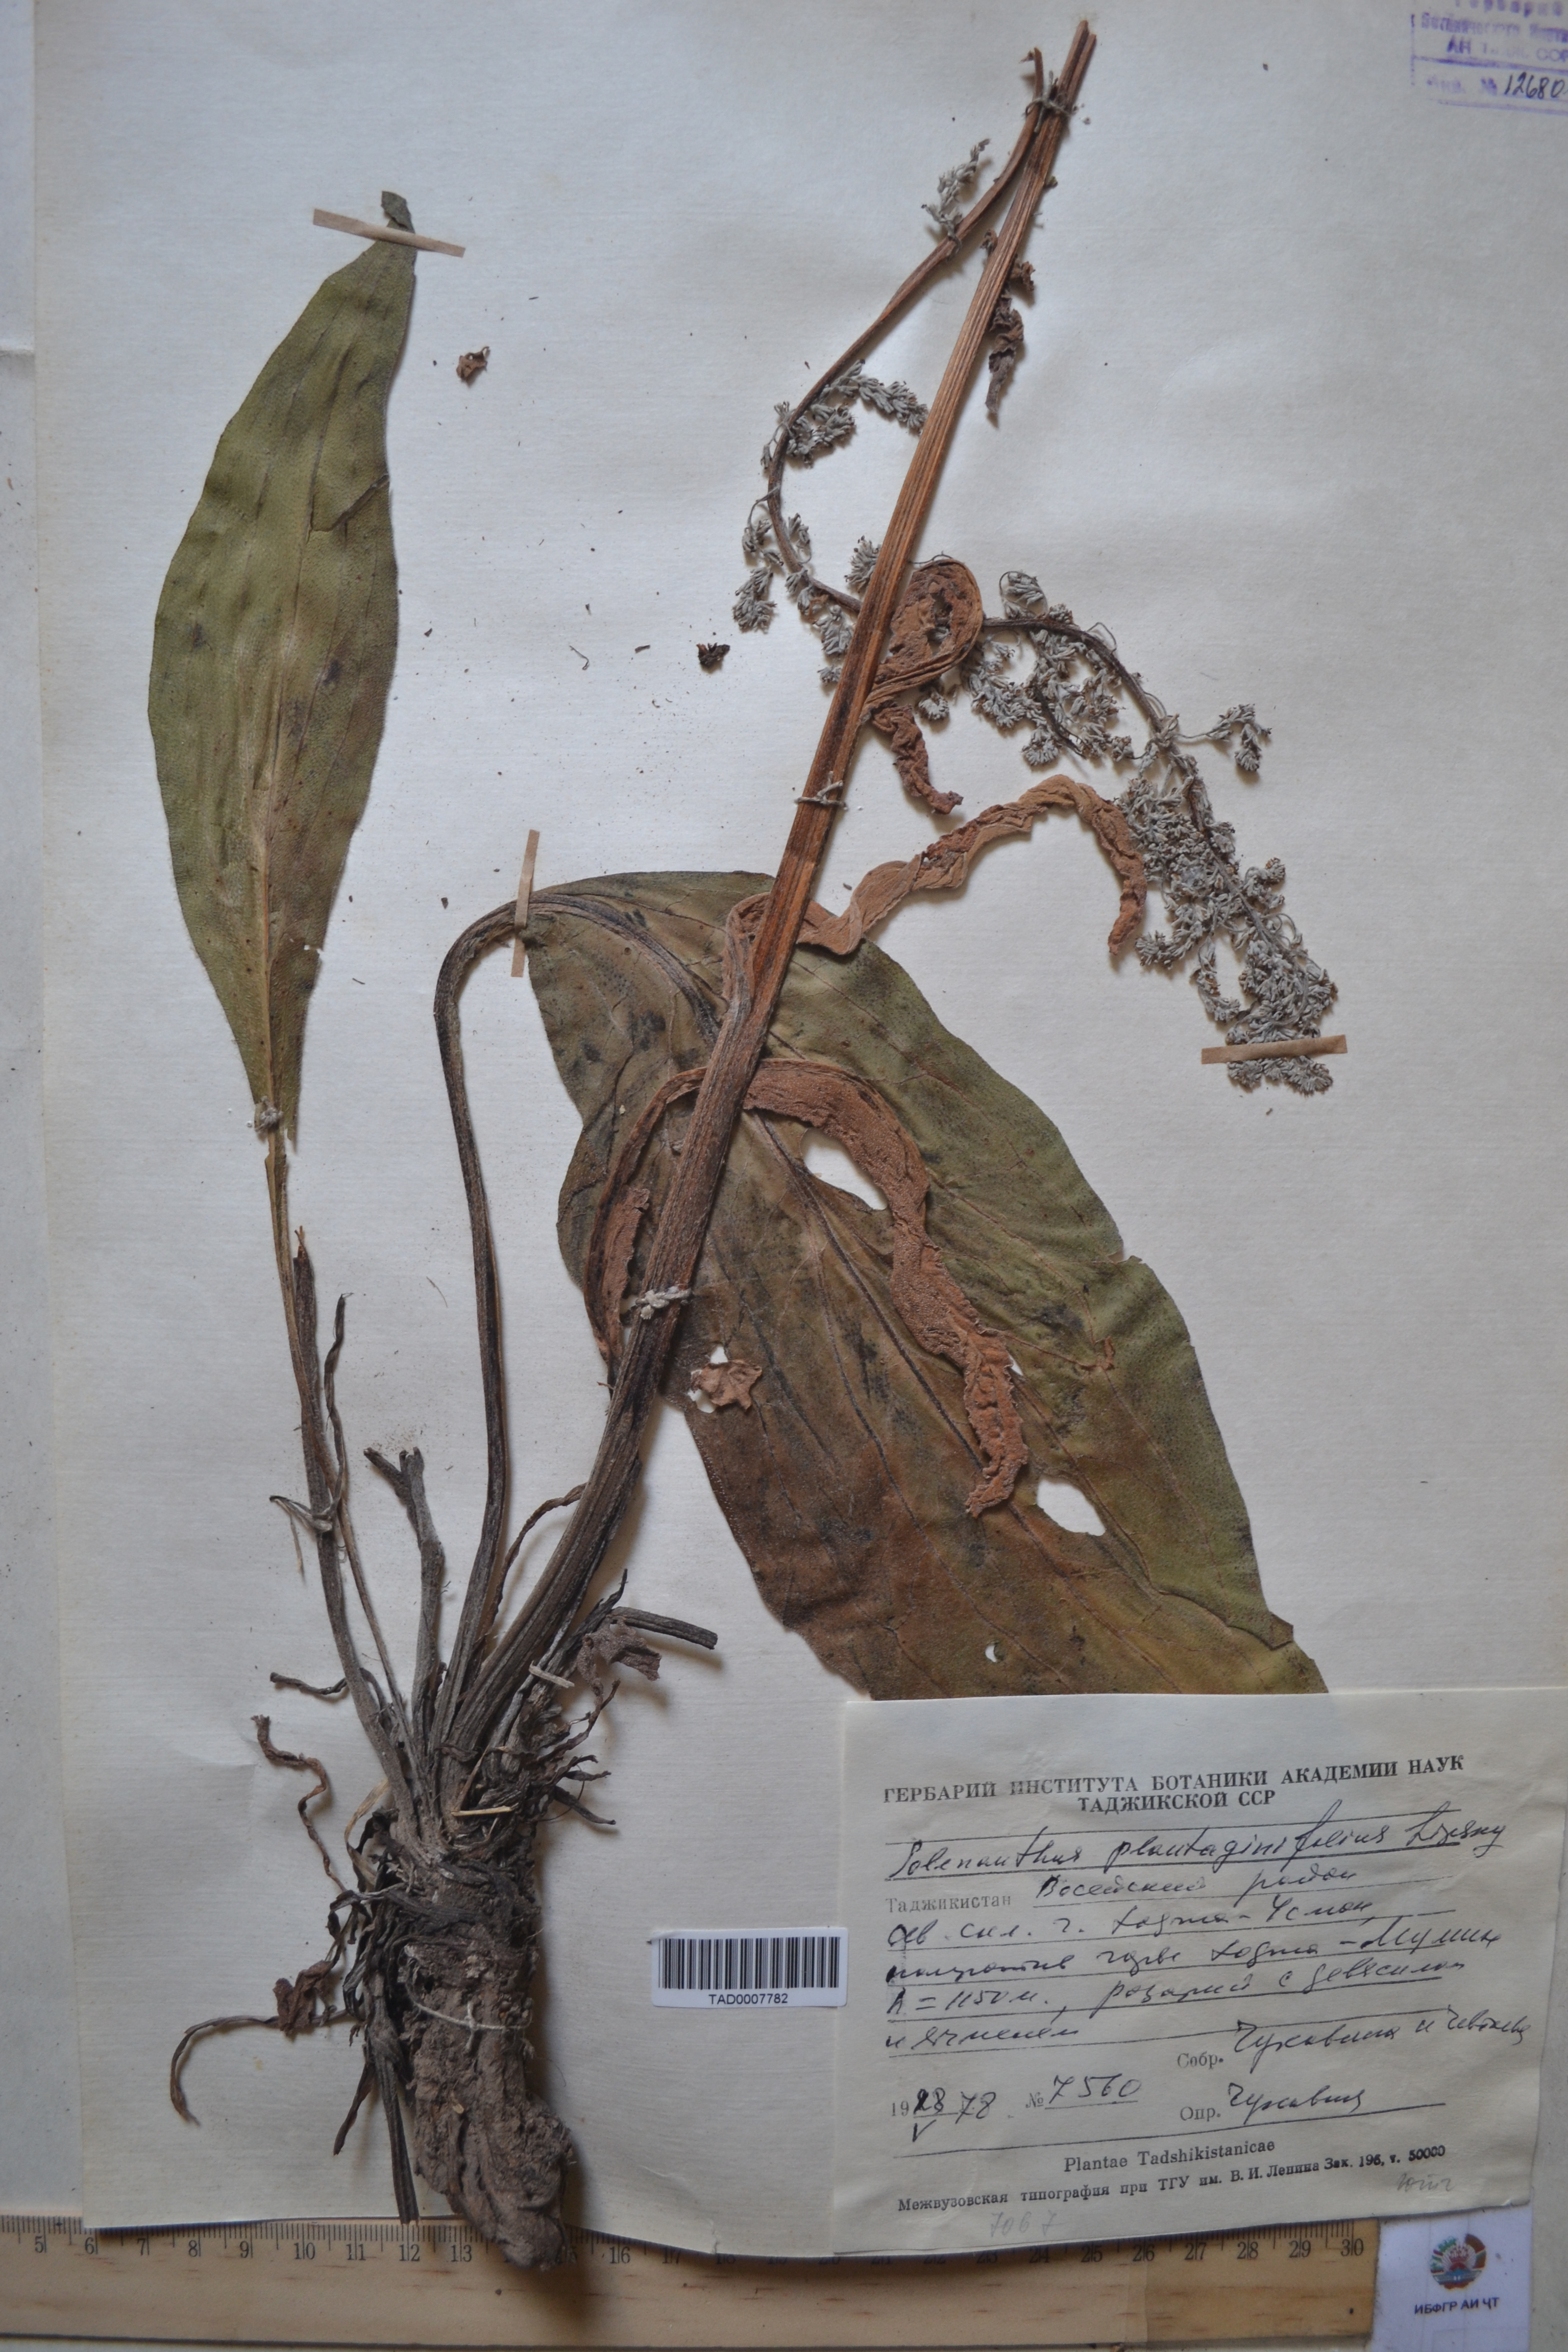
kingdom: Plantae
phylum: Tracheophyta
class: Magnoliopsida
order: Boraginales
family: Boraginaceae
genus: Solenanthus
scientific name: Solenanthus plantaginifolius
